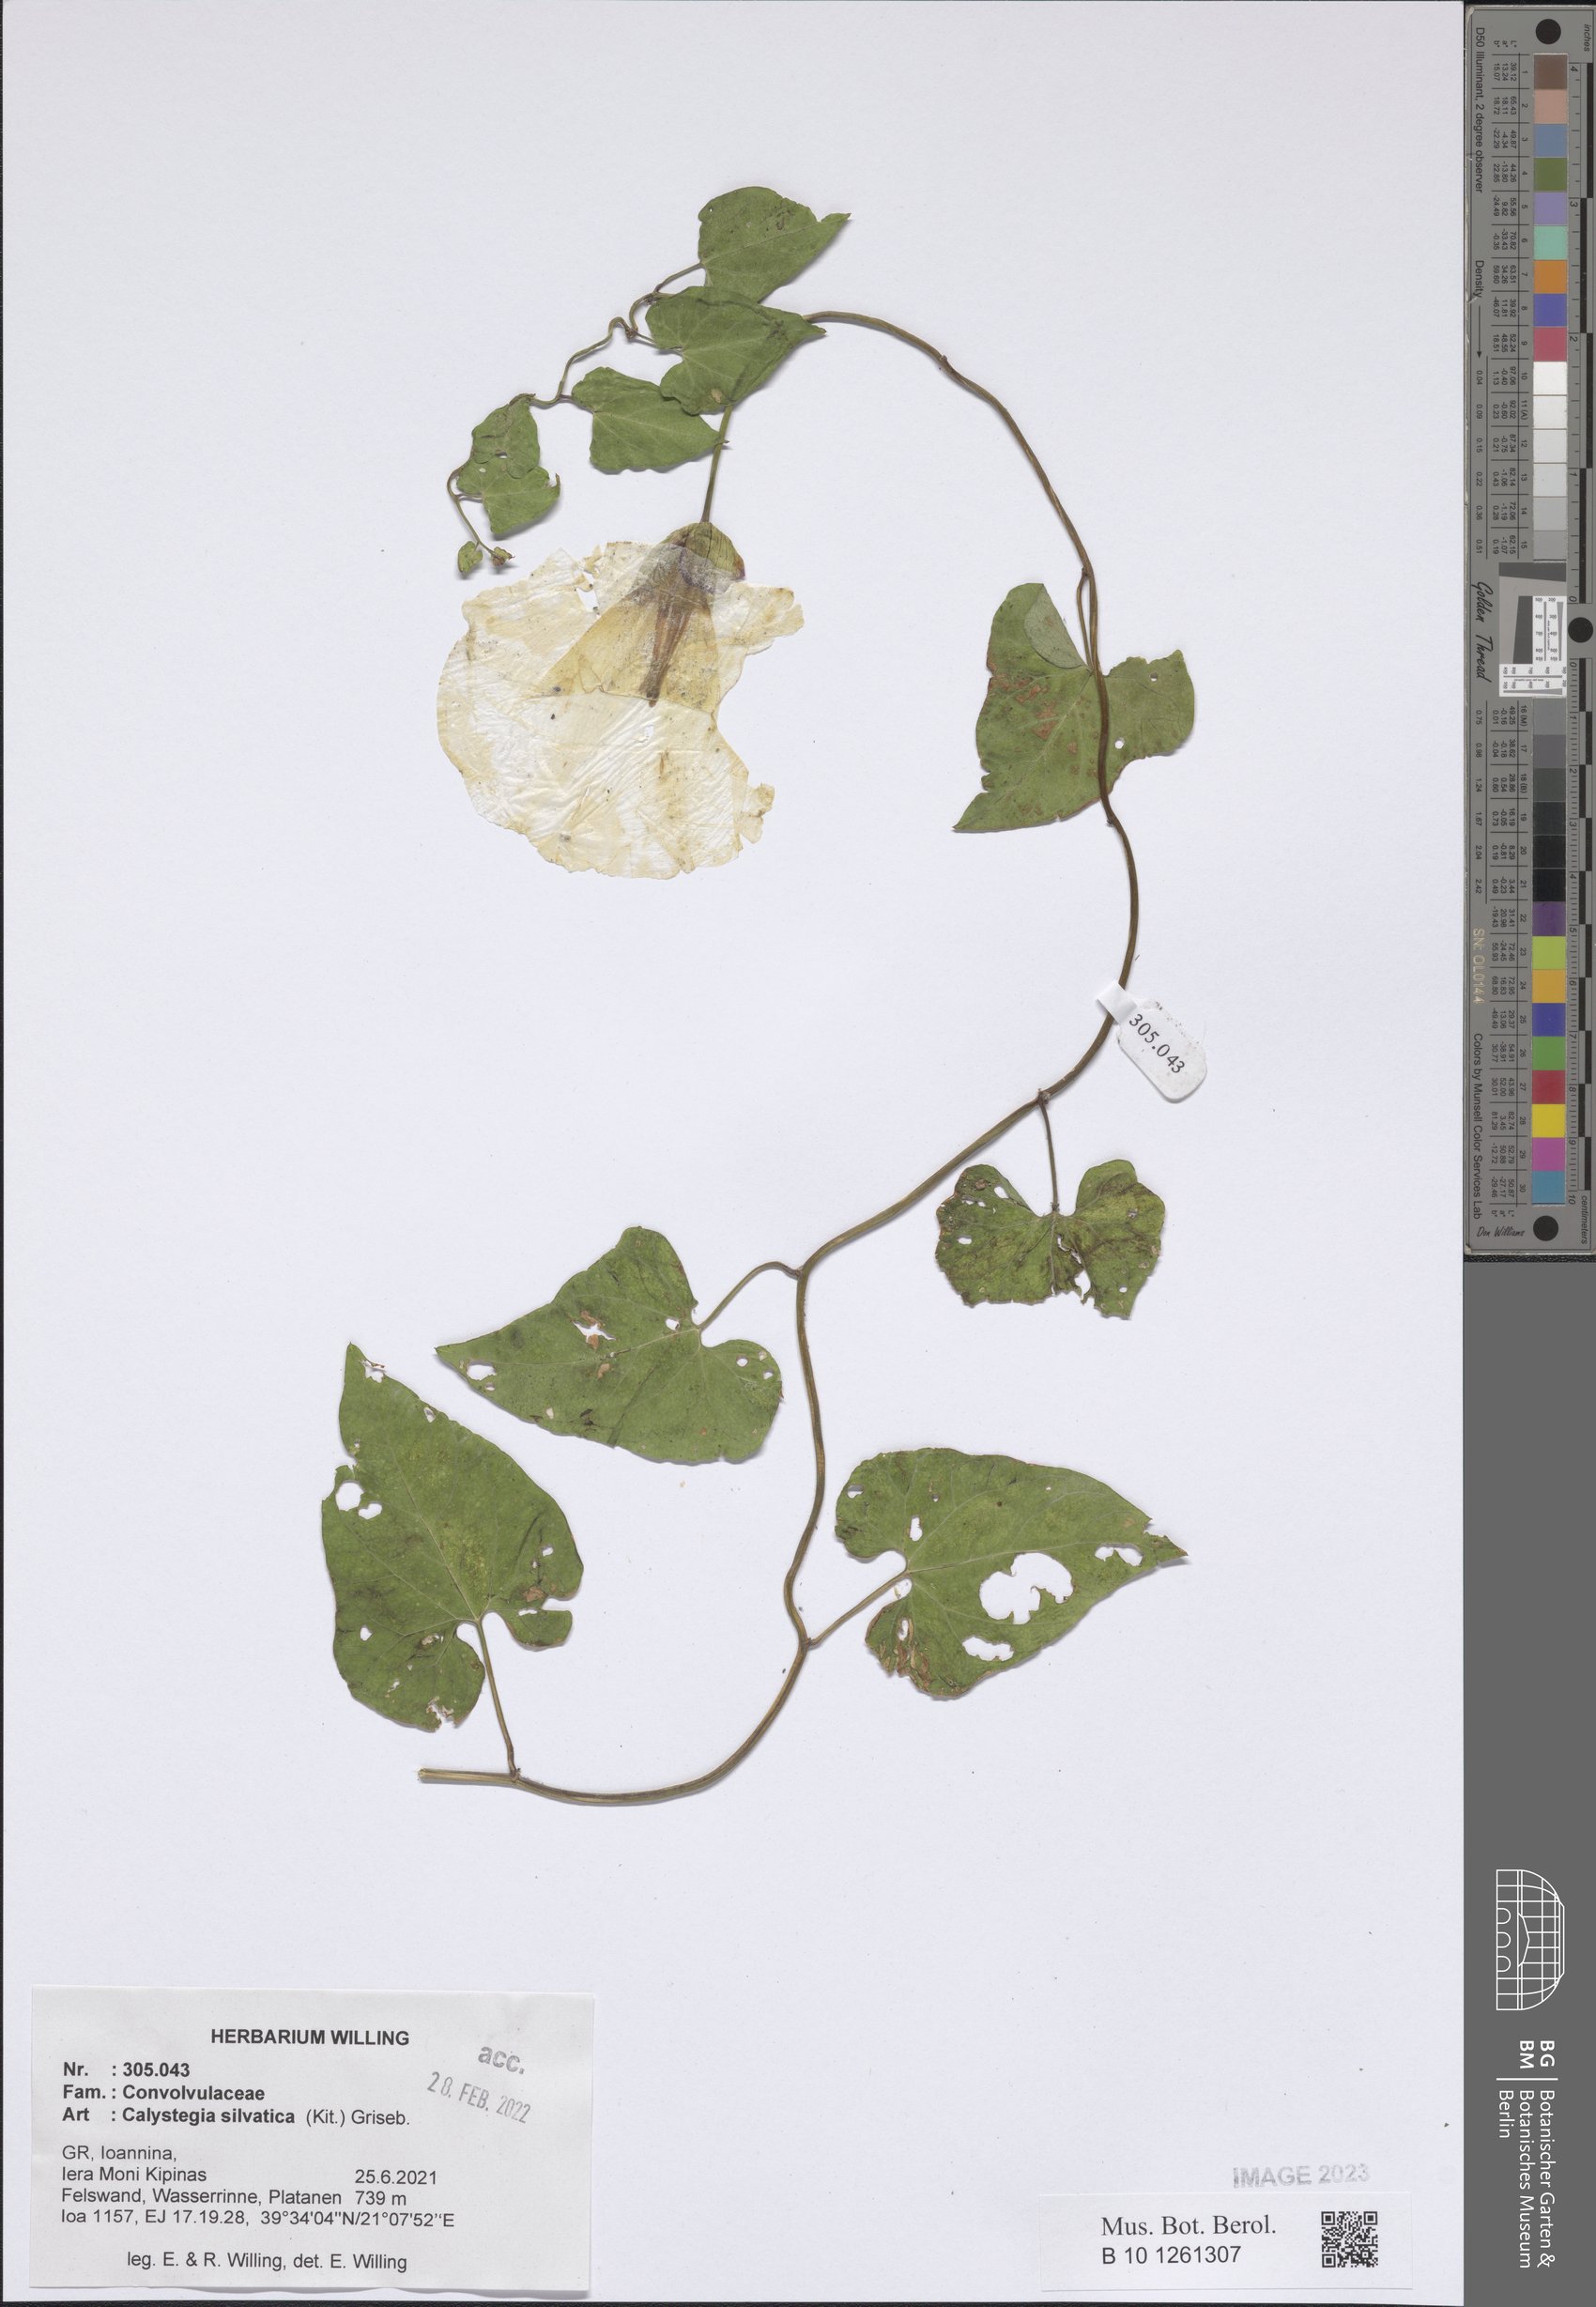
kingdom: Plantae
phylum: Tracheophyta
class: Magnoliopsida
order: Solanales
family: Convolvulaceae
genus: Calystegia
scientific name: Calystegia silvatica
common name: Large bindweed
